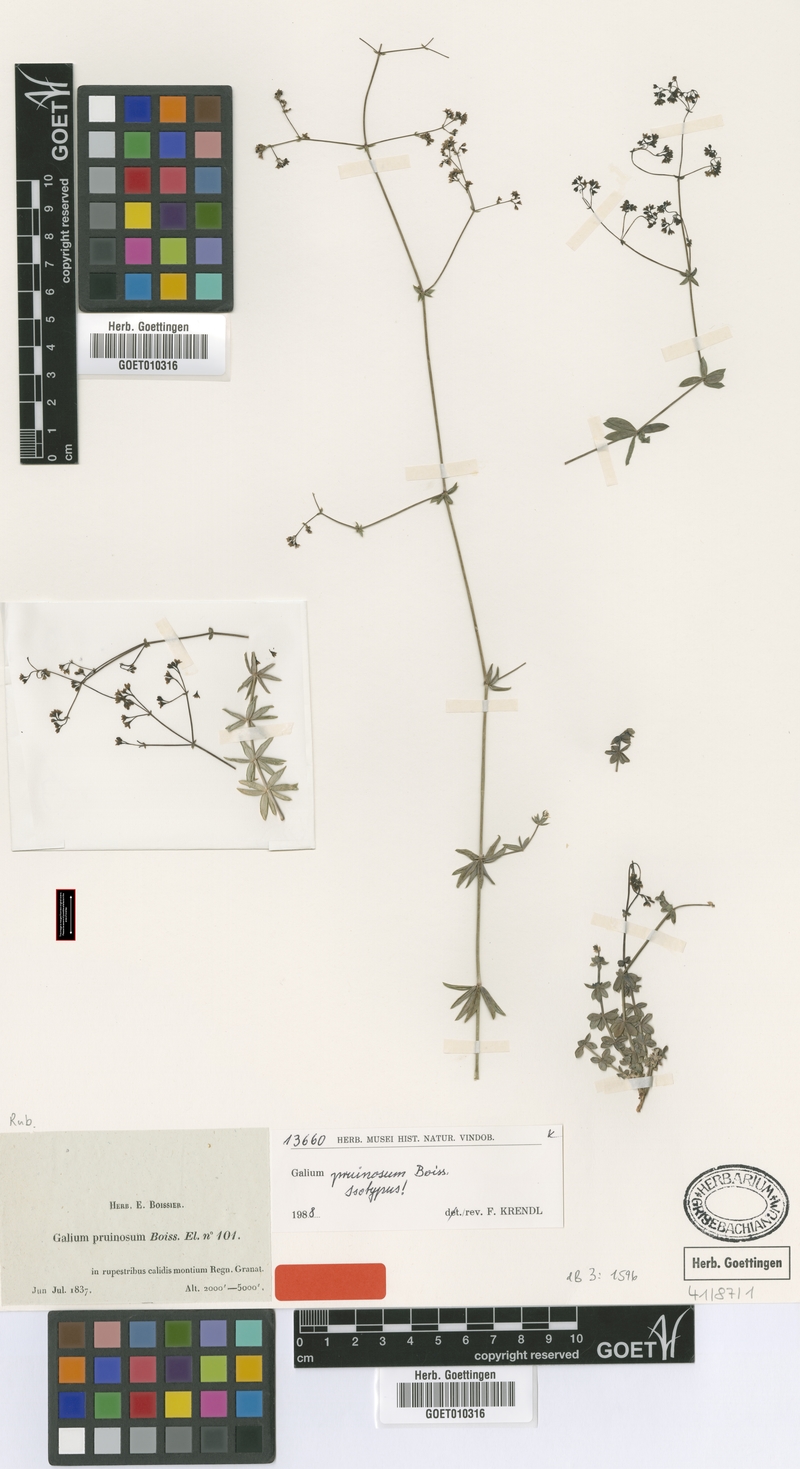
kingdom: Plantae
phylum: Tracheophyta
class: Magnoliopsida
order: Gentianales
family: Rubiaceae
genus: Galium
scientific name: Galium pruinosum
